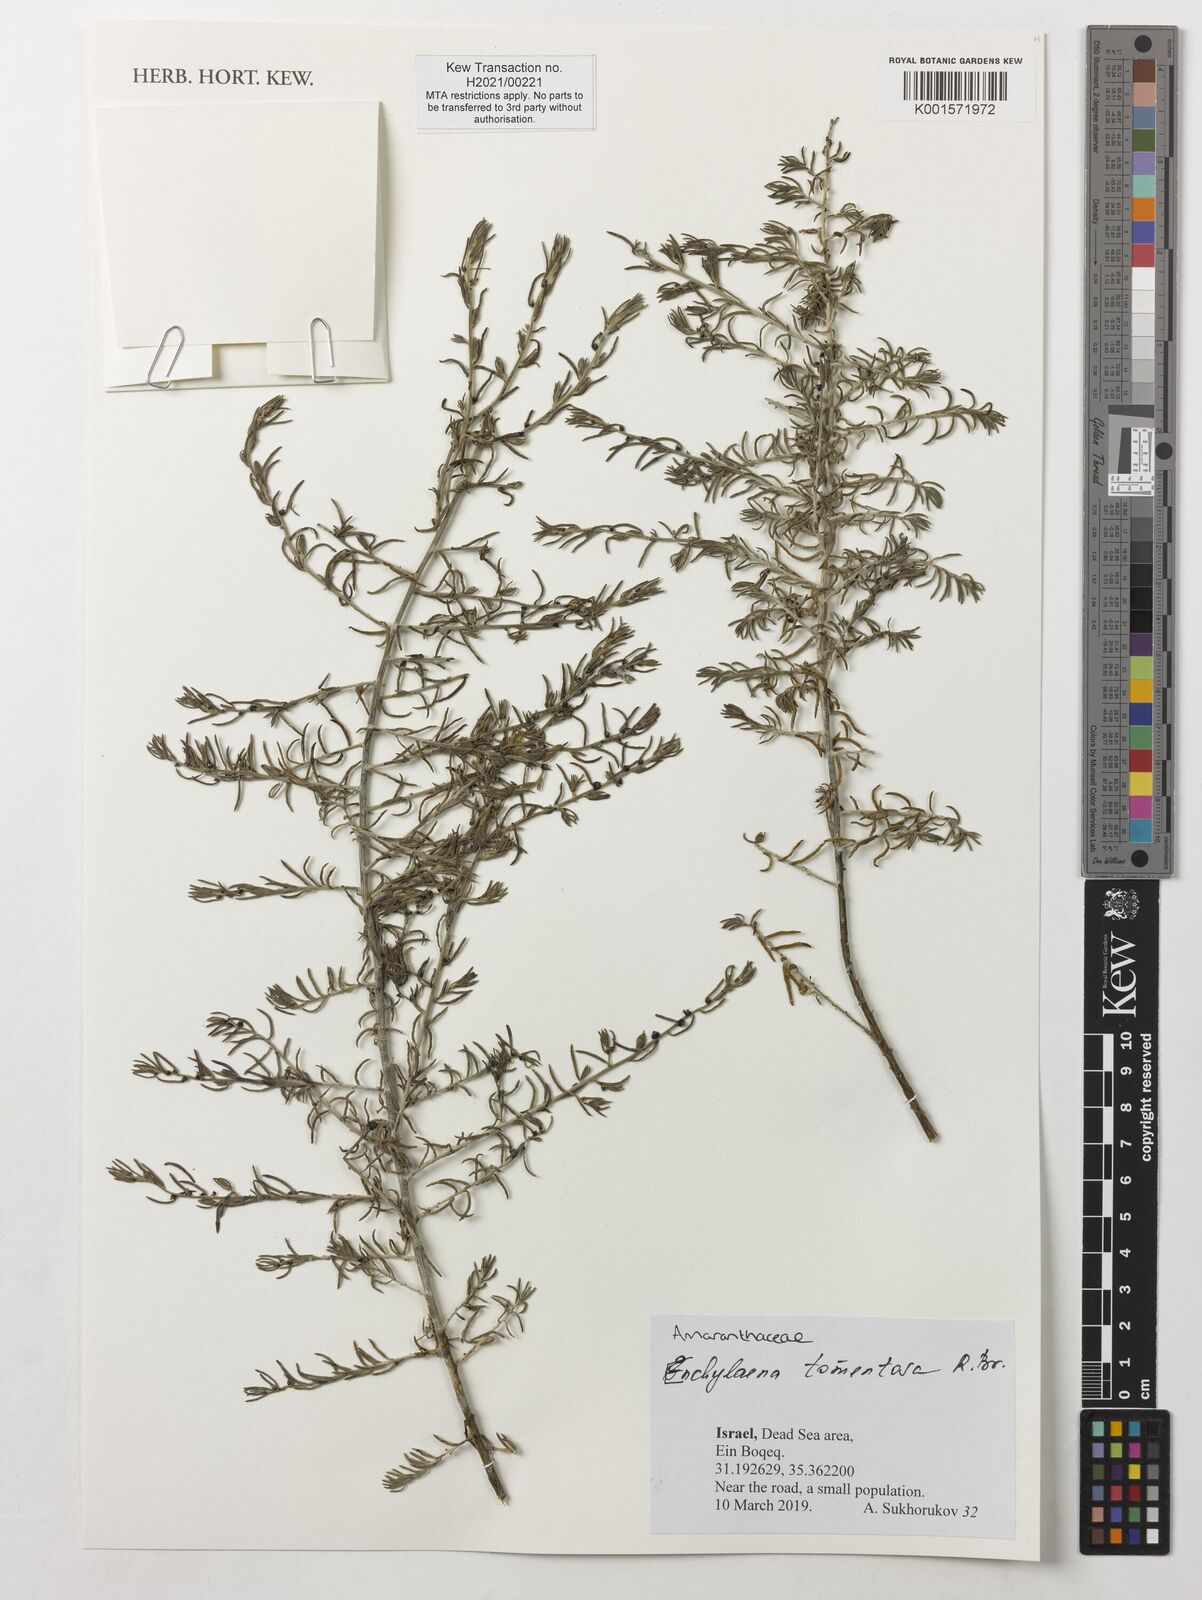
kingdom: Plantae
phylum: Tracheophyta
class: Magnoliopsida
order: Caryophyllales
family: Amaranthaceae
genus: Enchylaena
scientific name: Enchylaena tomentosa
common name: Ruby saltbush
